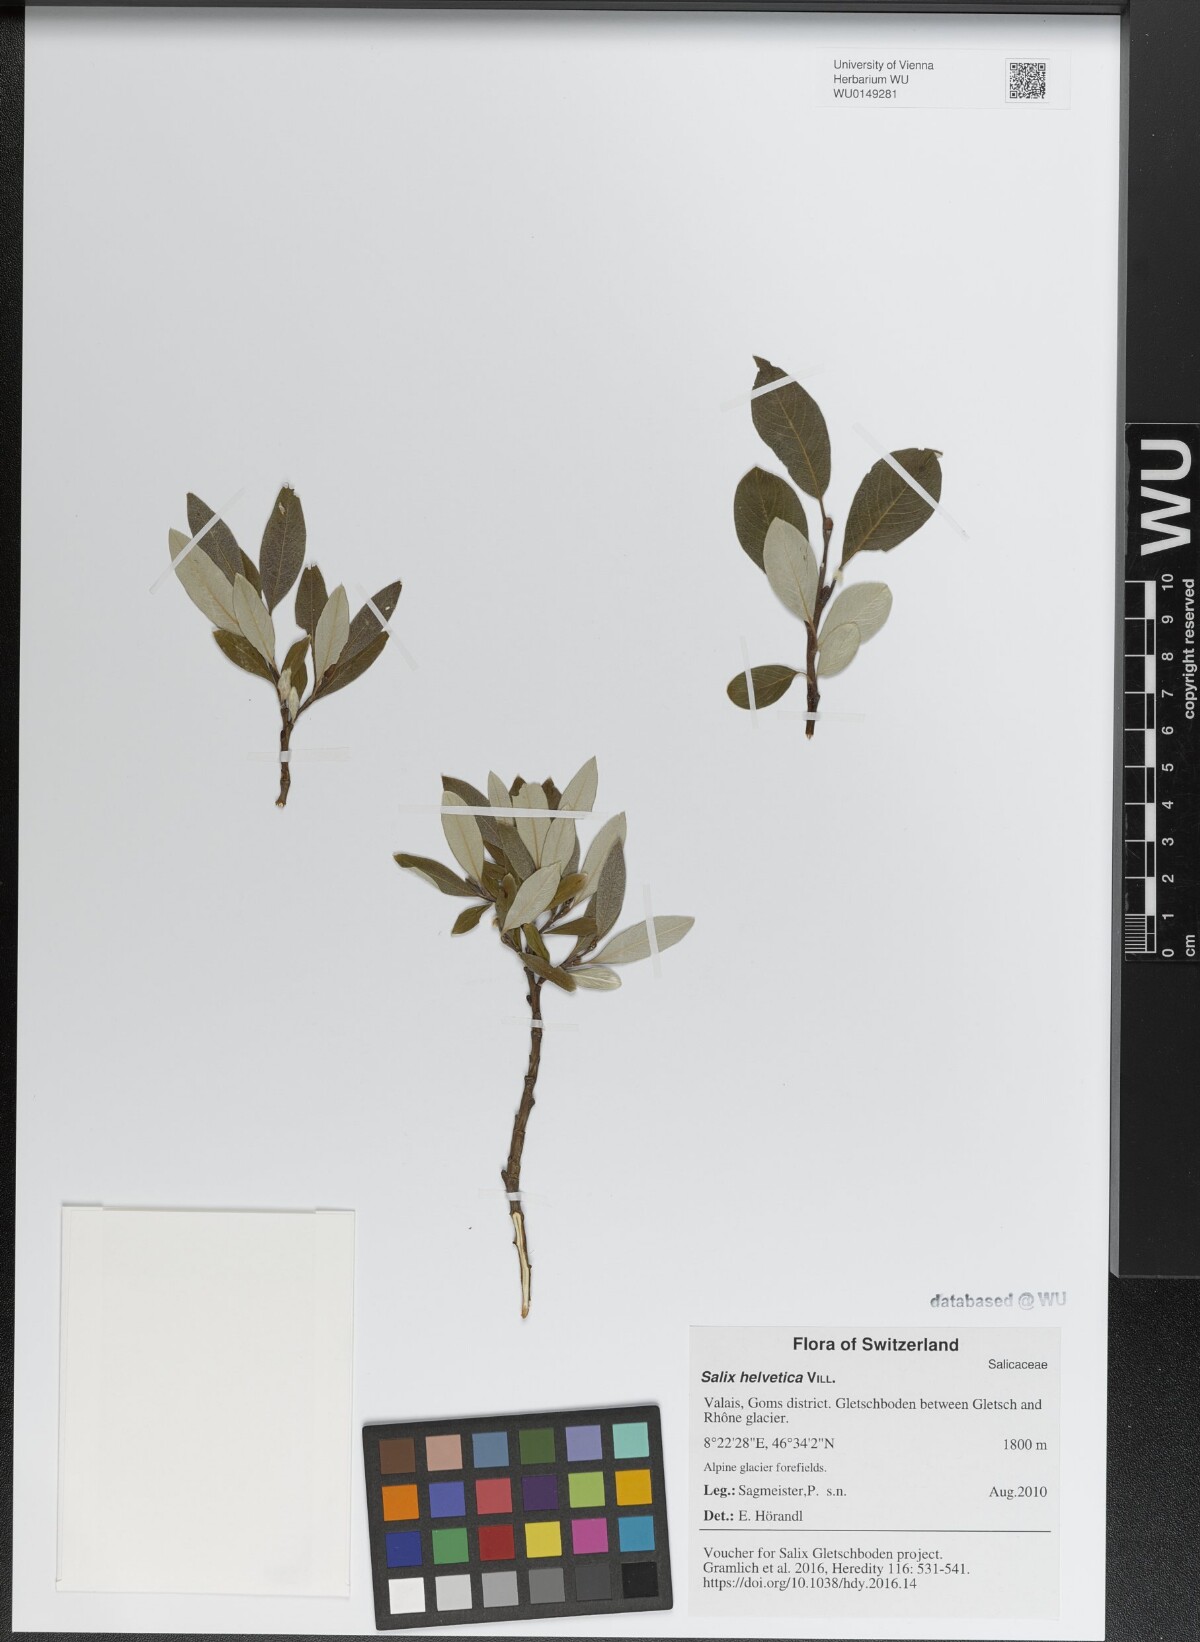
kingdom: Plantae
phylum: Tracheophyta
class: Magnoliopsida
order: Malpighiales
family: Salicaceae
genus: Salix
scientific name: Salix helvetica
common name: Swiss willow
